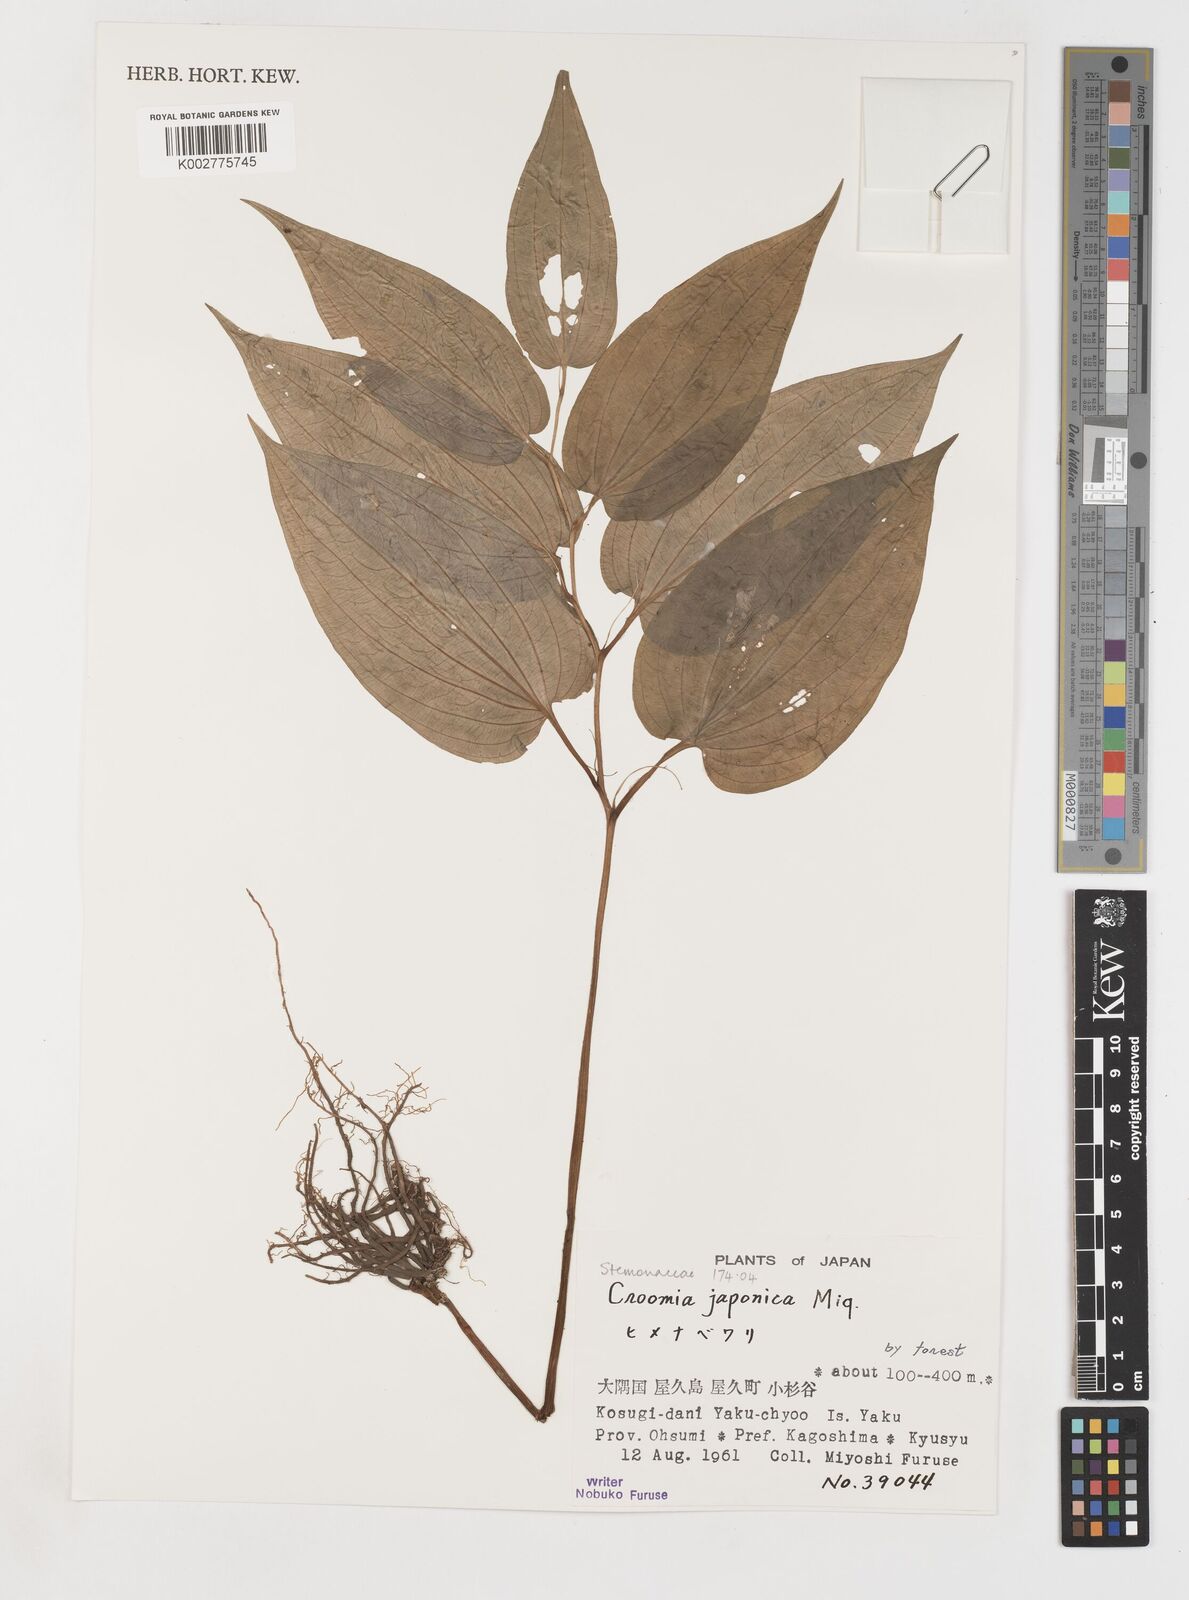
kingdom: Plantae
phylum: Tracheophyta
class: Liliopsida
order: Pandanales
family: Stemonaceae
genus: Croomia
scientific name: Croomia japonica
